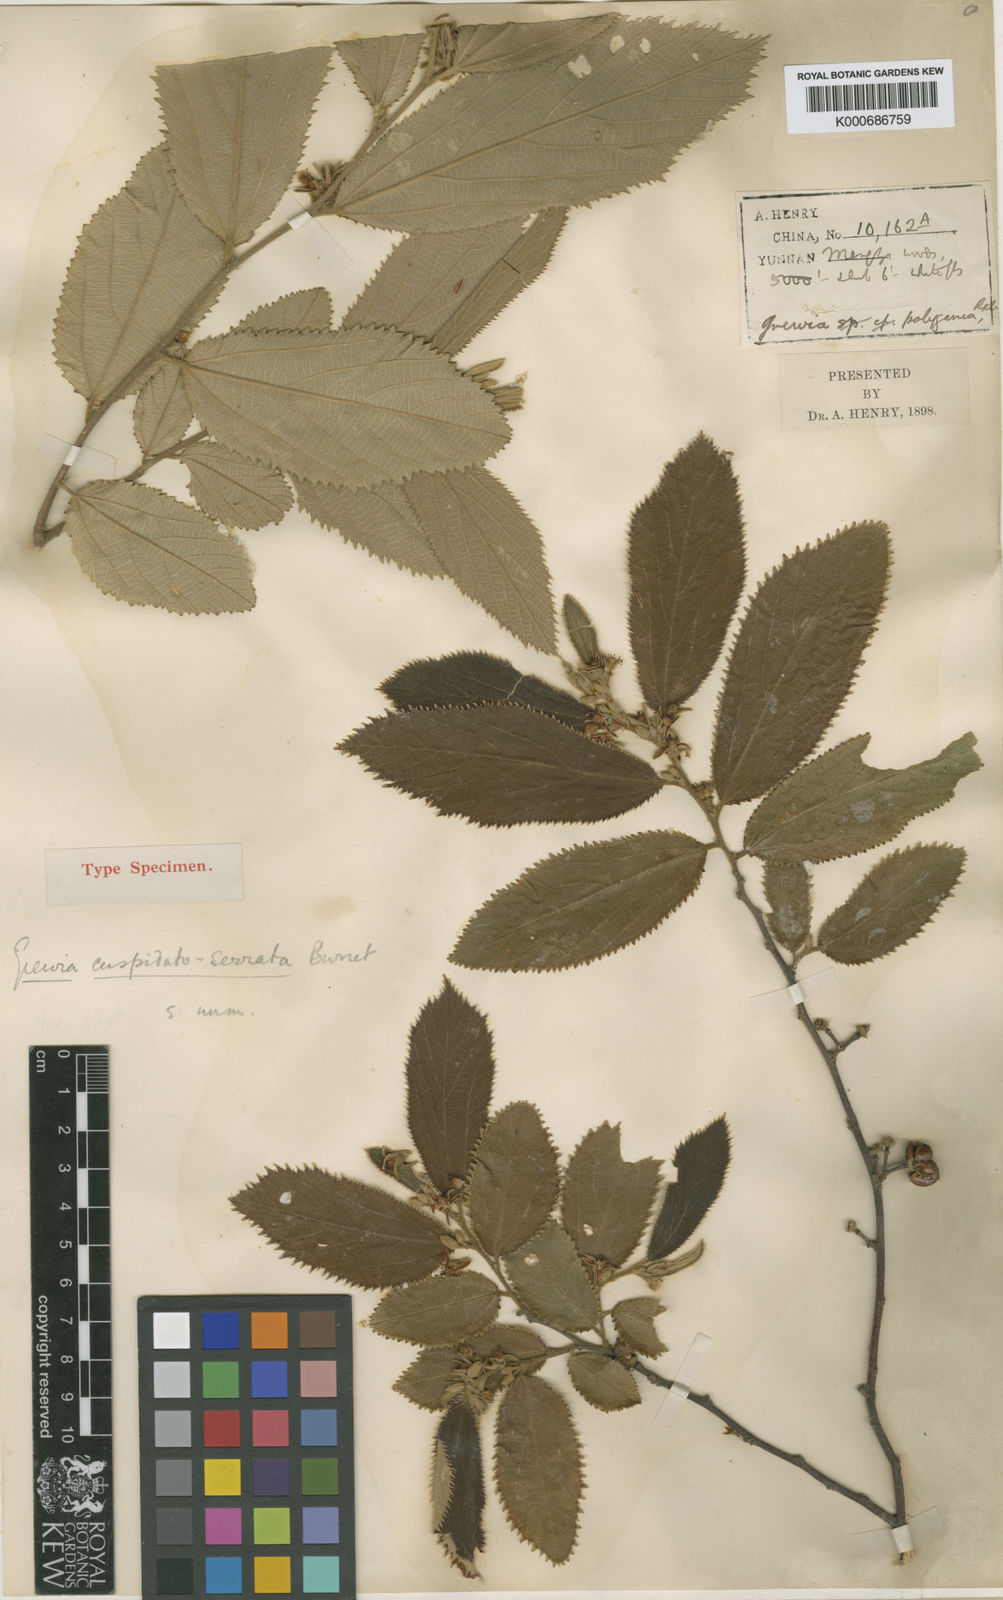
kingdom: Plantae
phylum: Tracheophyta
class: Magnoliopsida
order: Malvales
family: Malvaceae
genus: Grewia
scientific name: Grewia cuspidatoserrata
